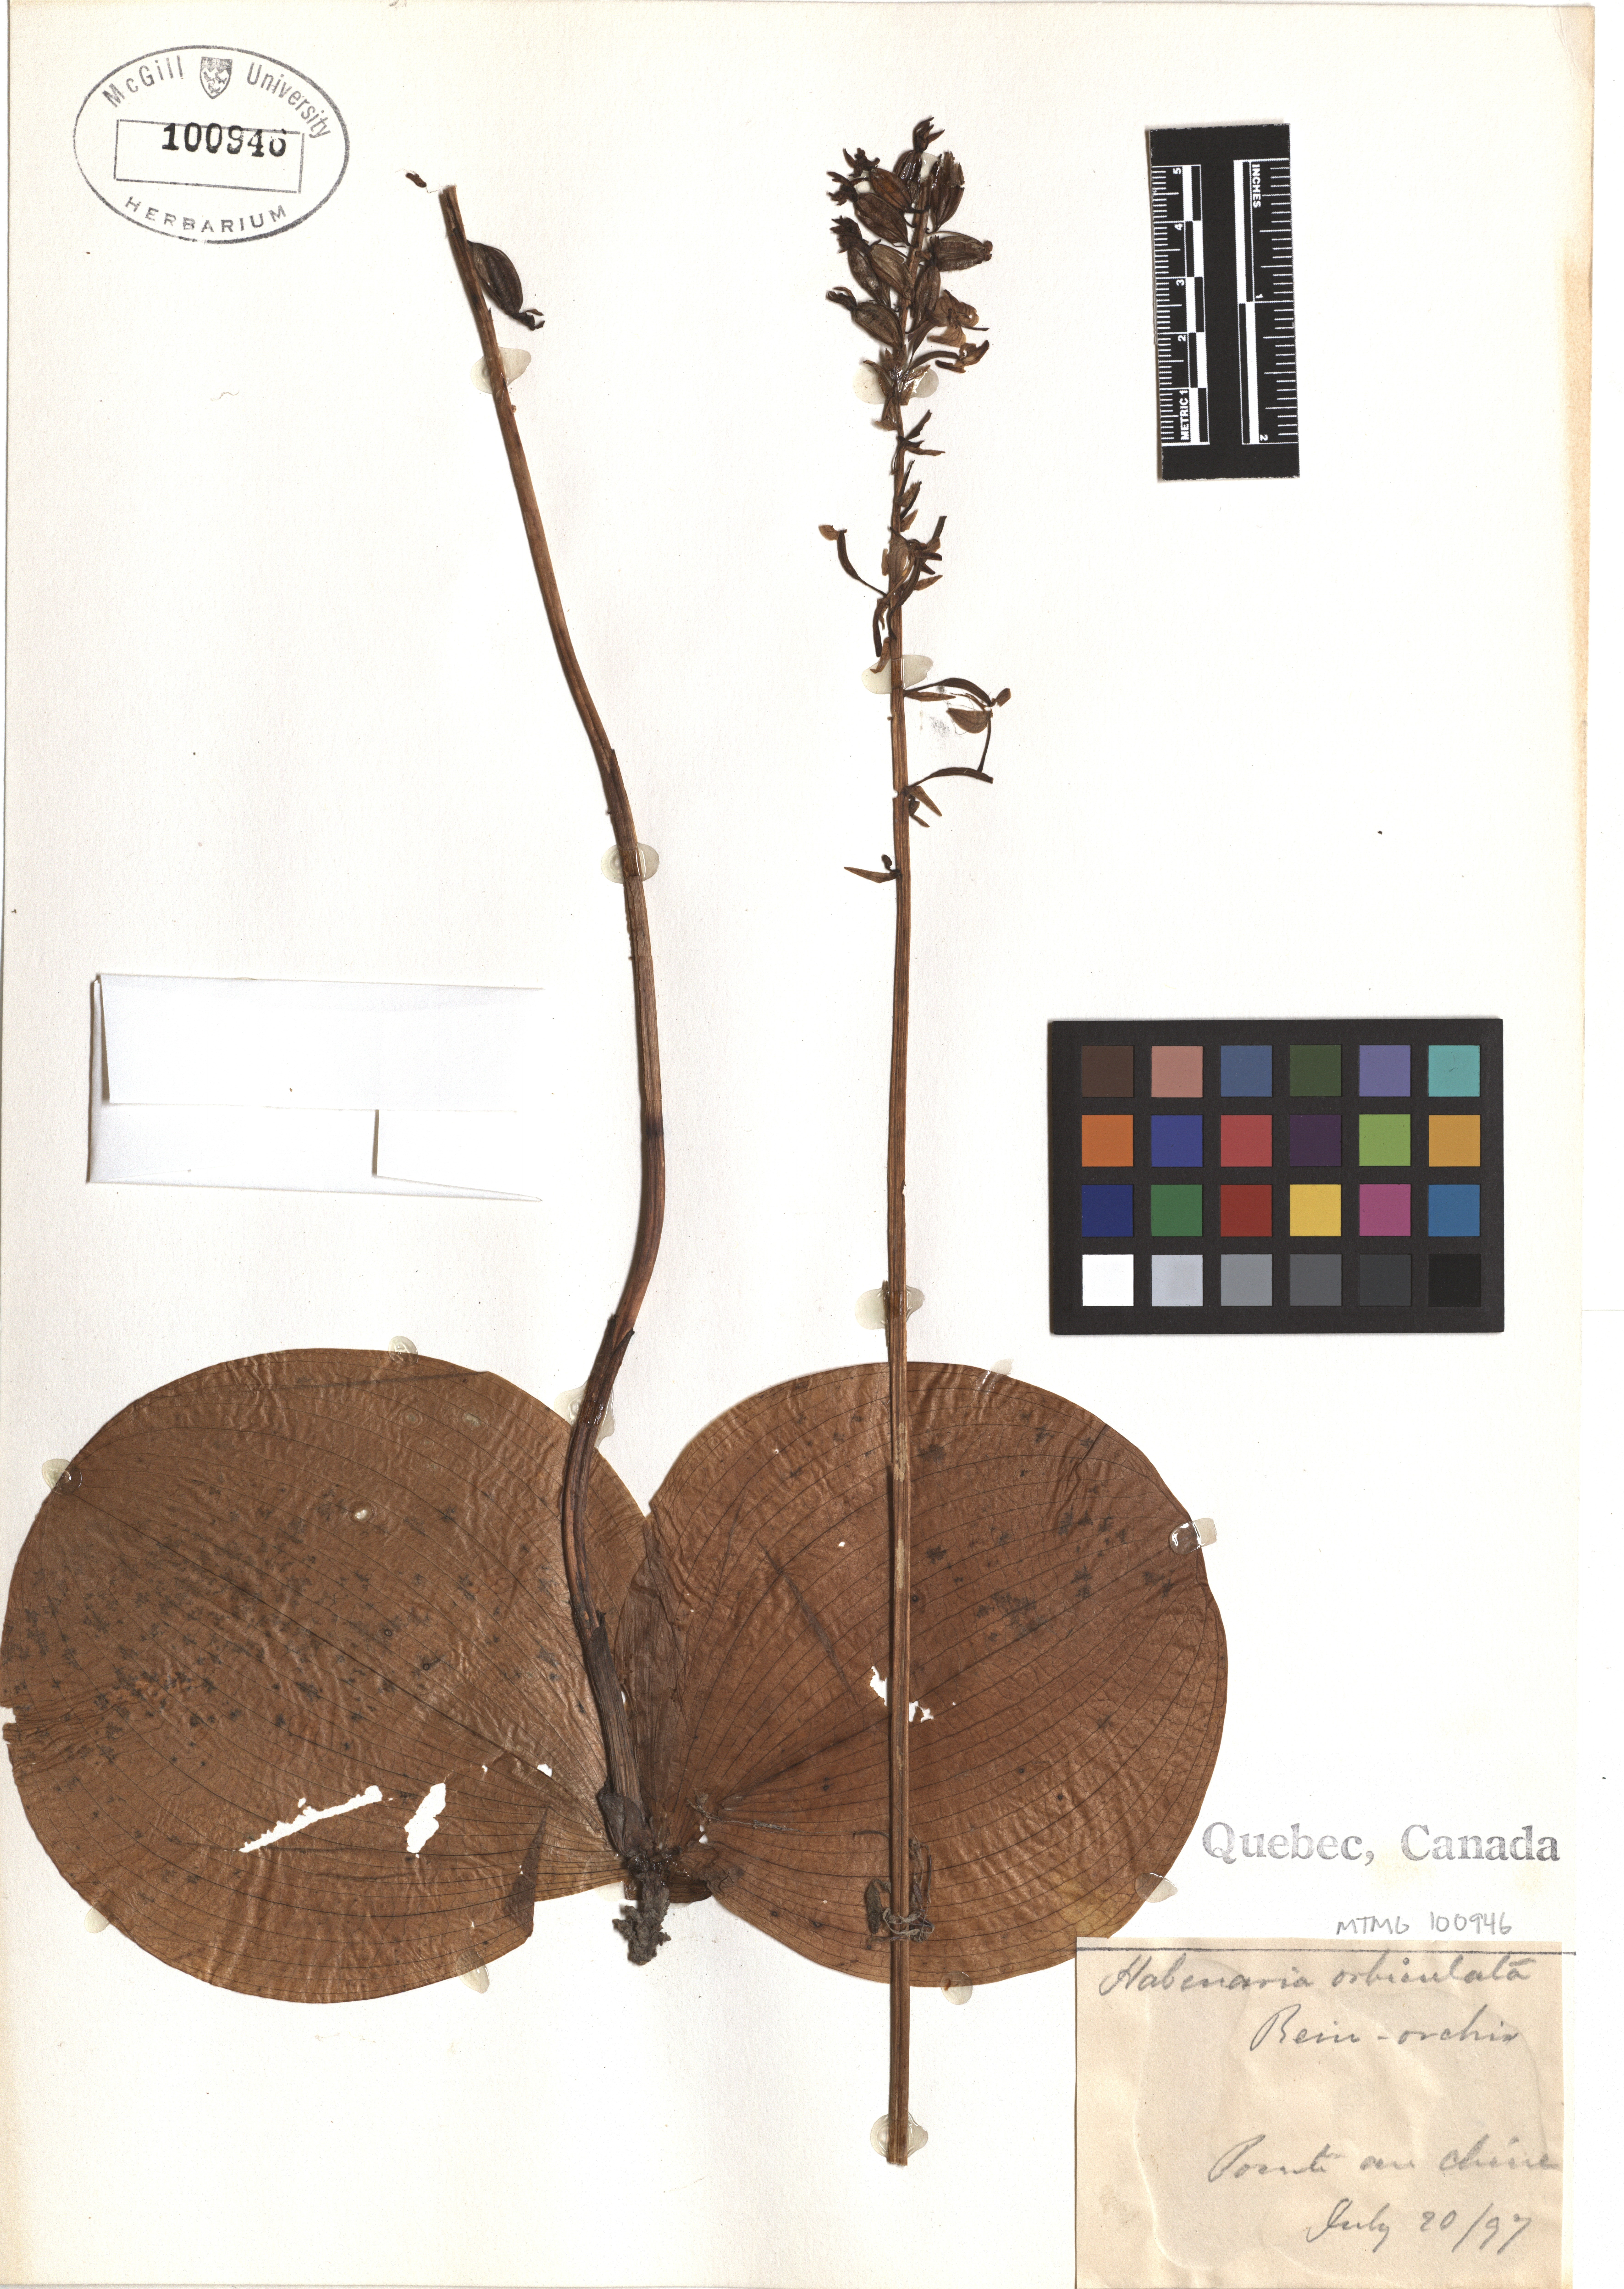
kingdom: Plantae
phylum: Tracheophyta
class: Liliopsida
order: Asparagales
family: Orchidaceae
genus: Platanthera
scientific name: Platanthera orbiculata
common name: Large round-leaved orchid
